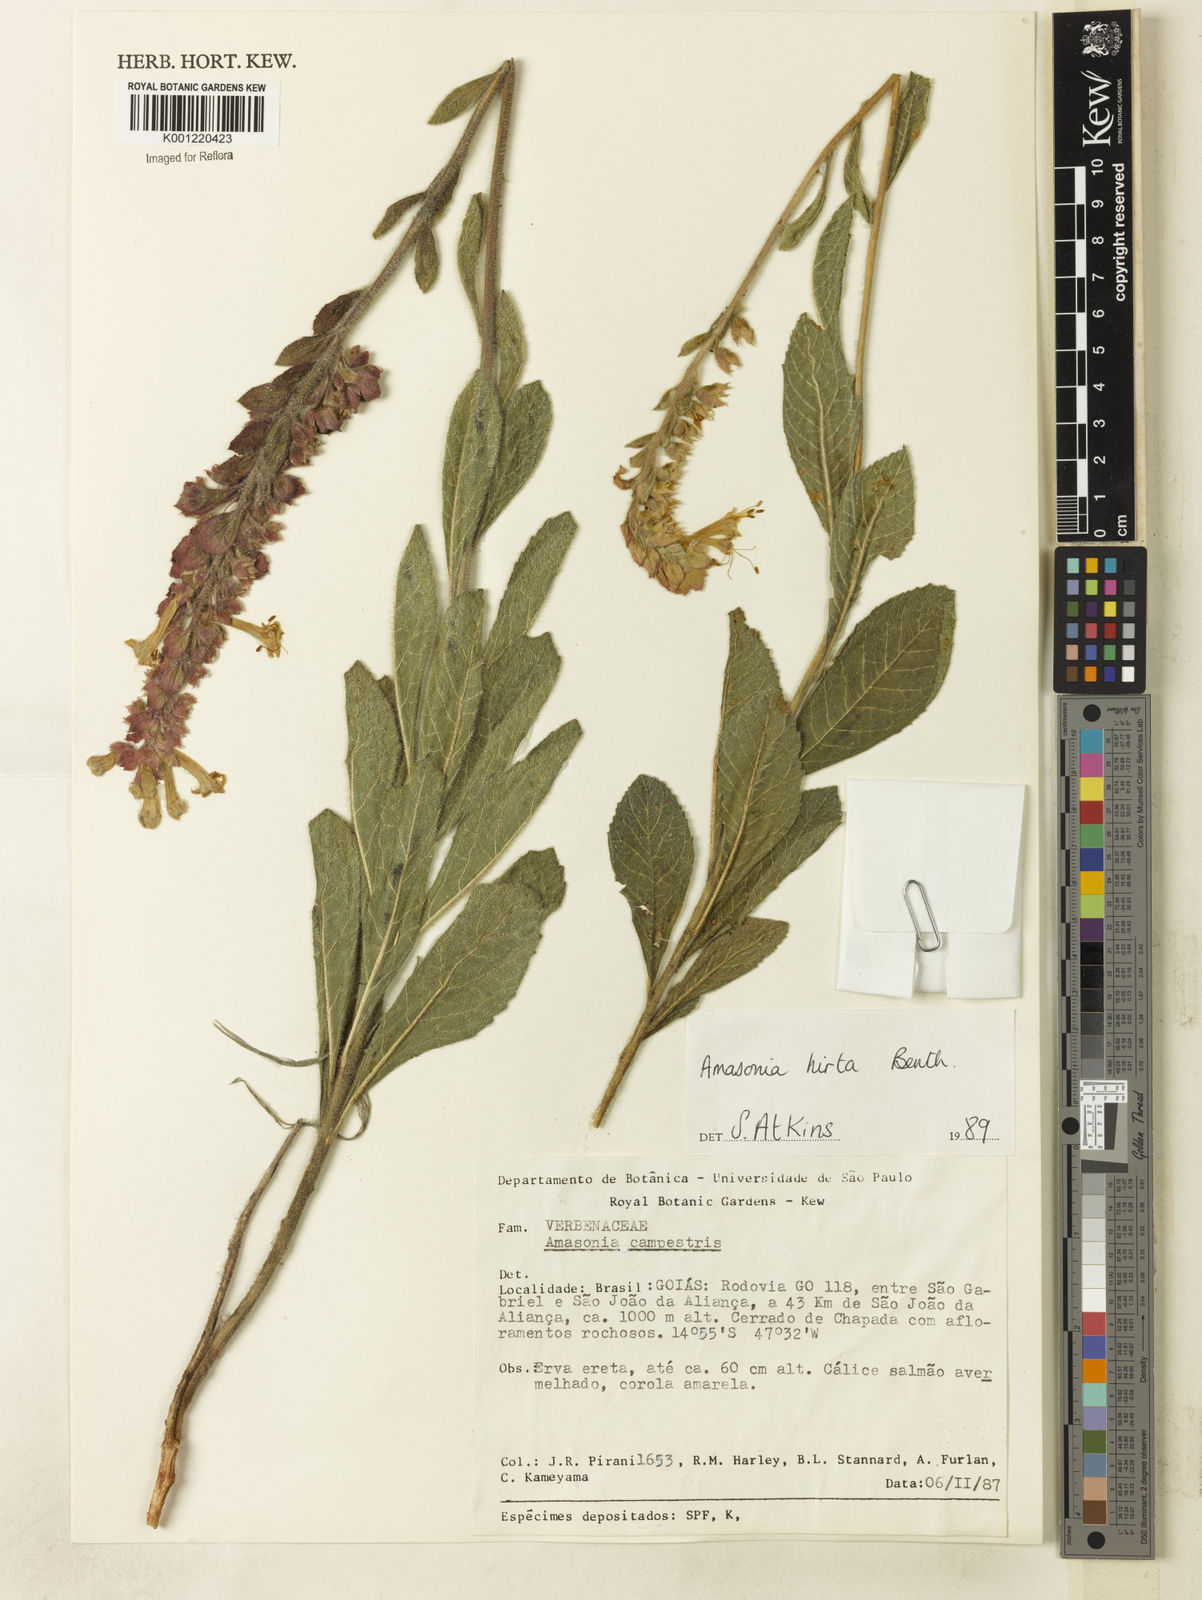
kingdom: Plantae
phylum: Tracheophyta
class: Magnoliopsida
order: Lamiales
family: Lamiaceae
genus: Amasonia
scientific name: Amasonia hirta
